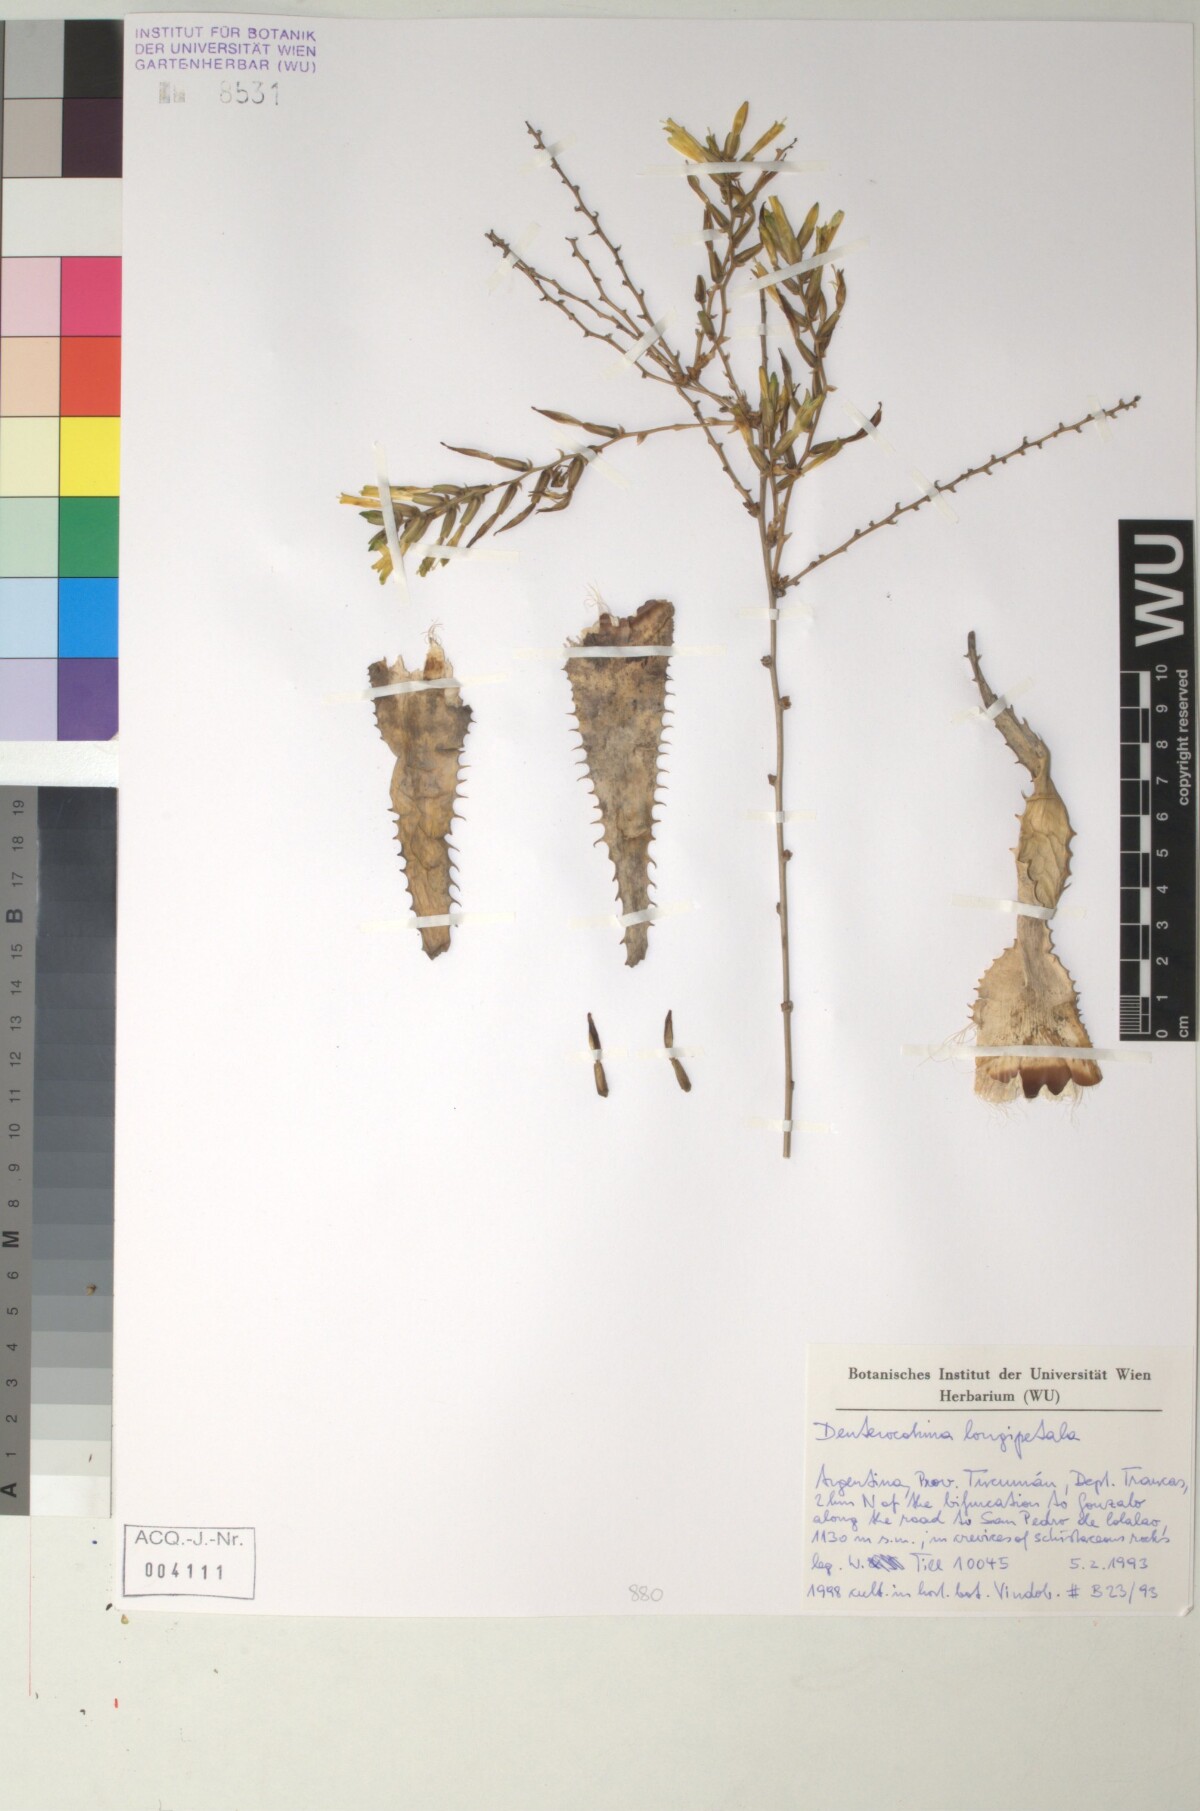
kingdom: Plantae
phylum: Tracheophyta
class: Liliopsida
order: Poales
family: Bromeliaceae
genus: Deuterocohnia
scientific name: Deuterocohnia longipetala
